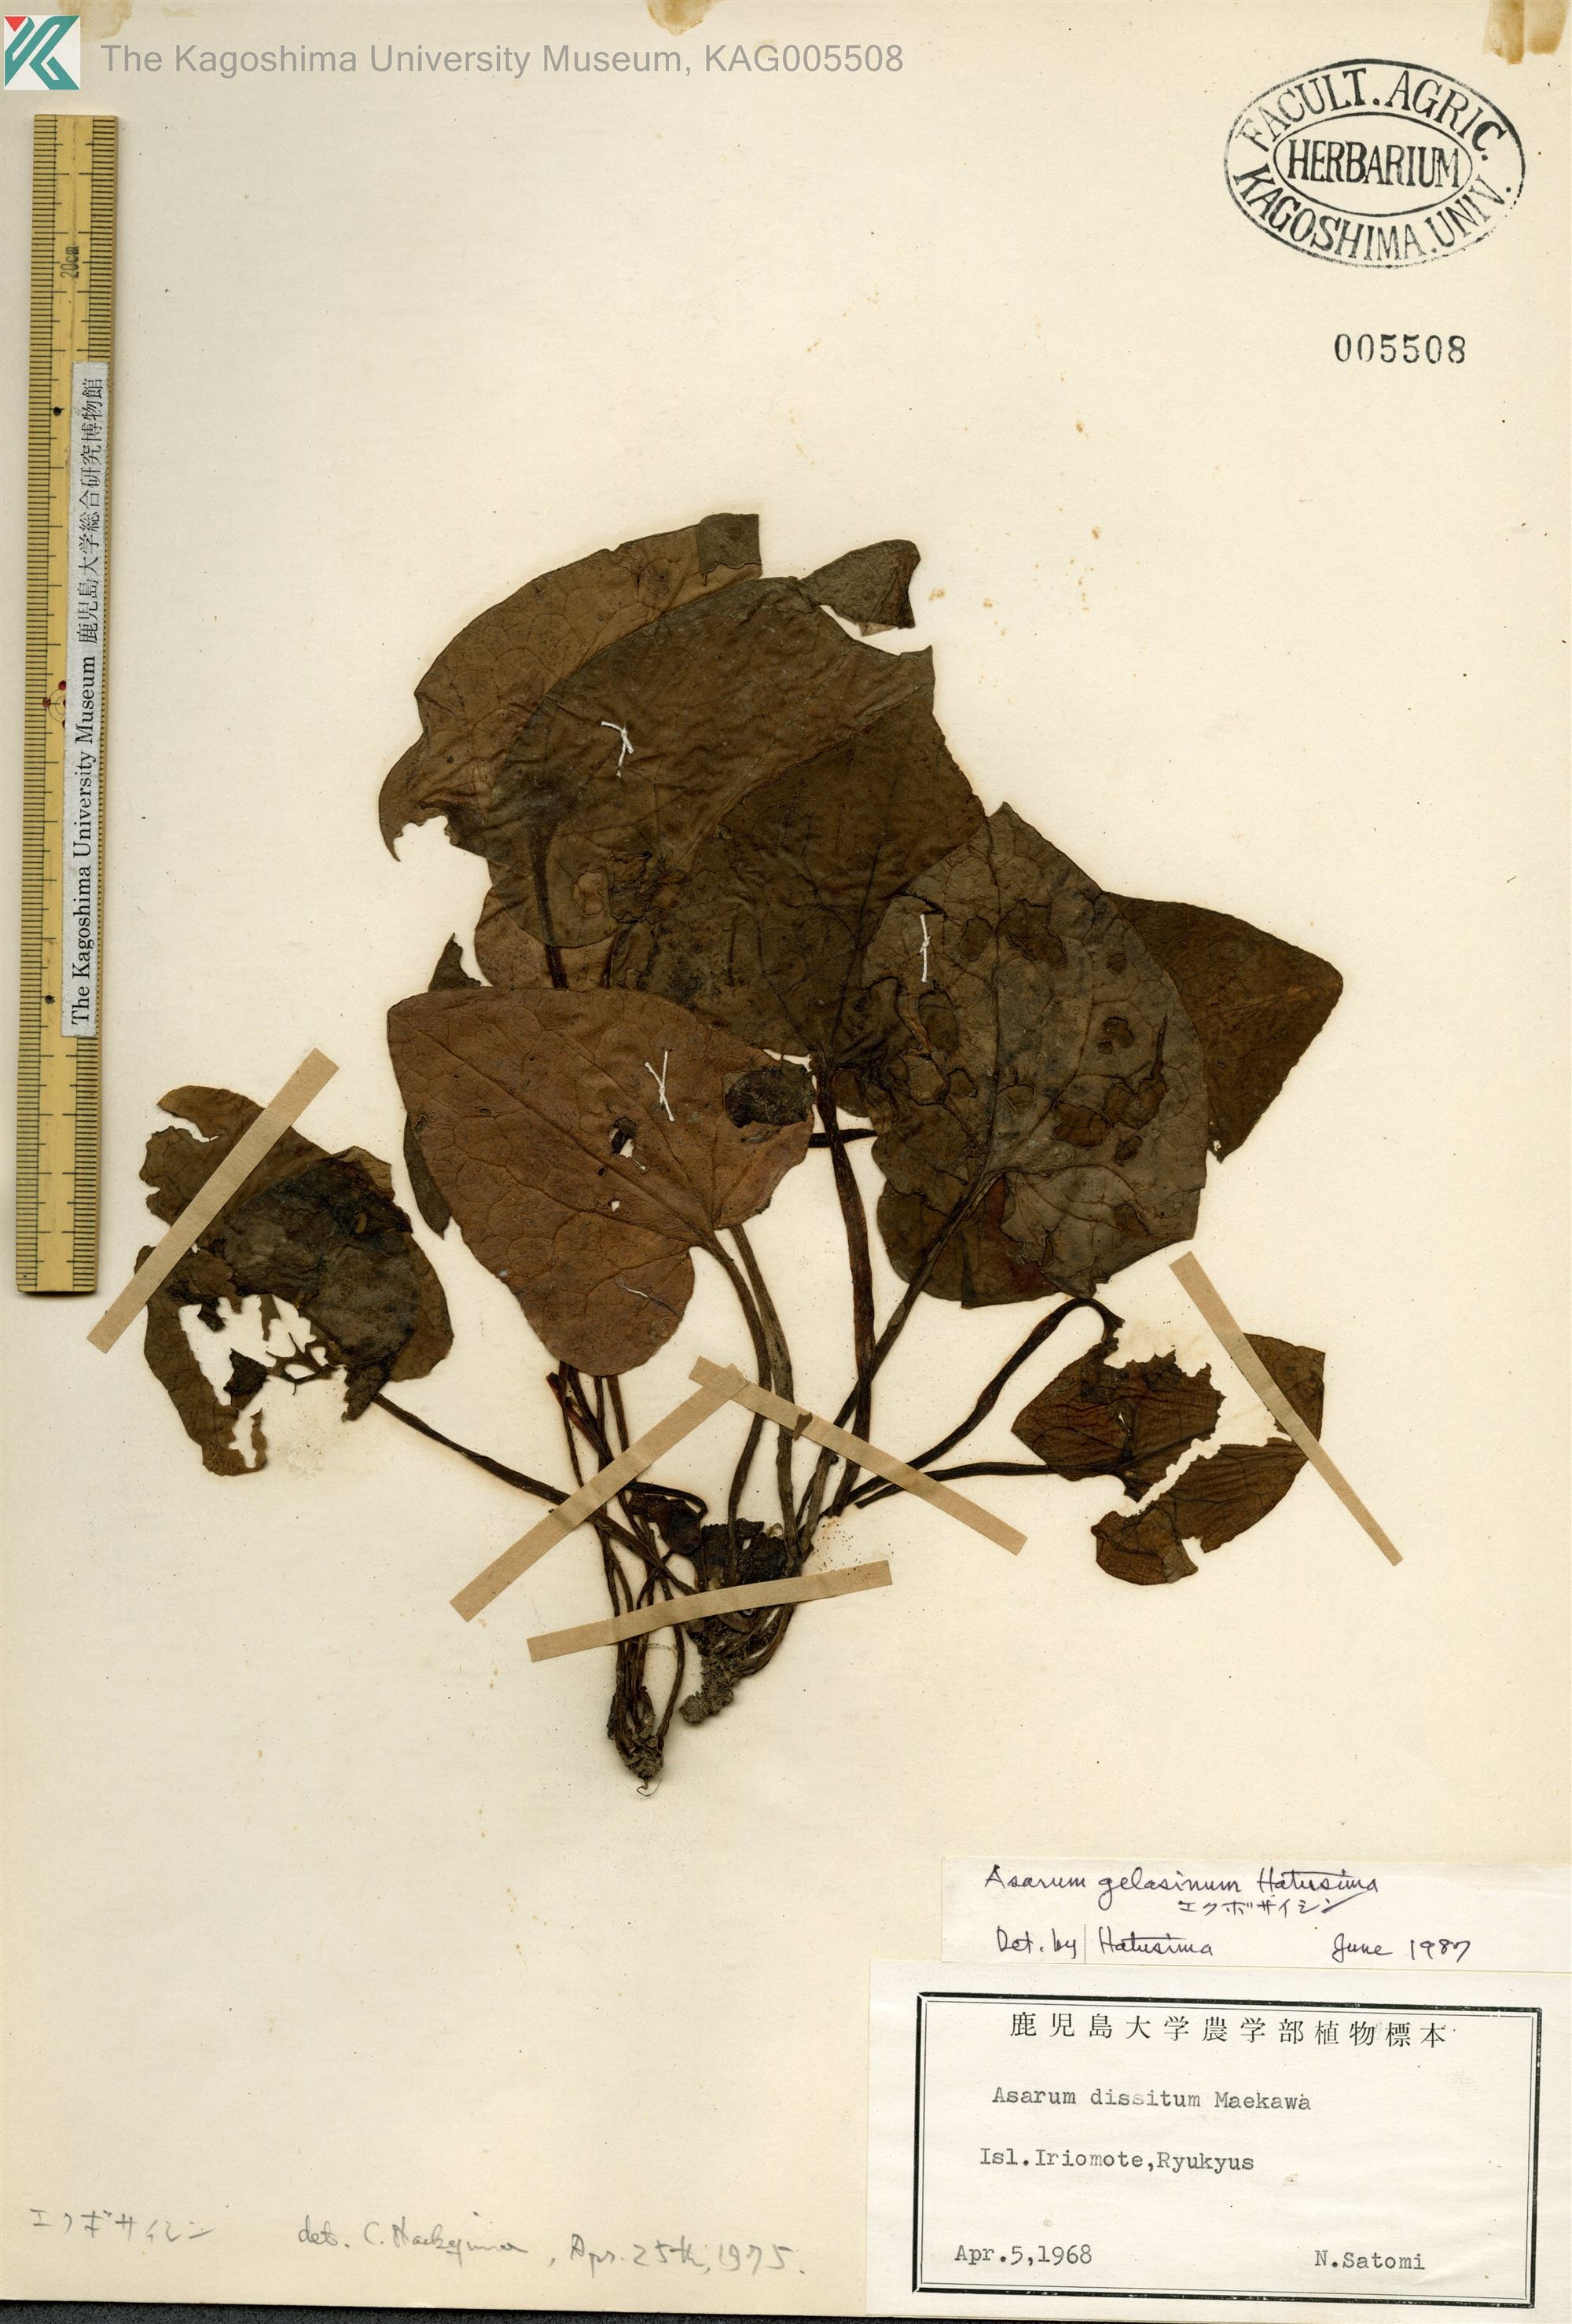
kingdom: Plantae
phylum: Tracheophyta
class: Magnoliopsida
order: Piperales
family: Aristolochiaceae
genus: Asarum
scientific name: Asarum gelasinum
